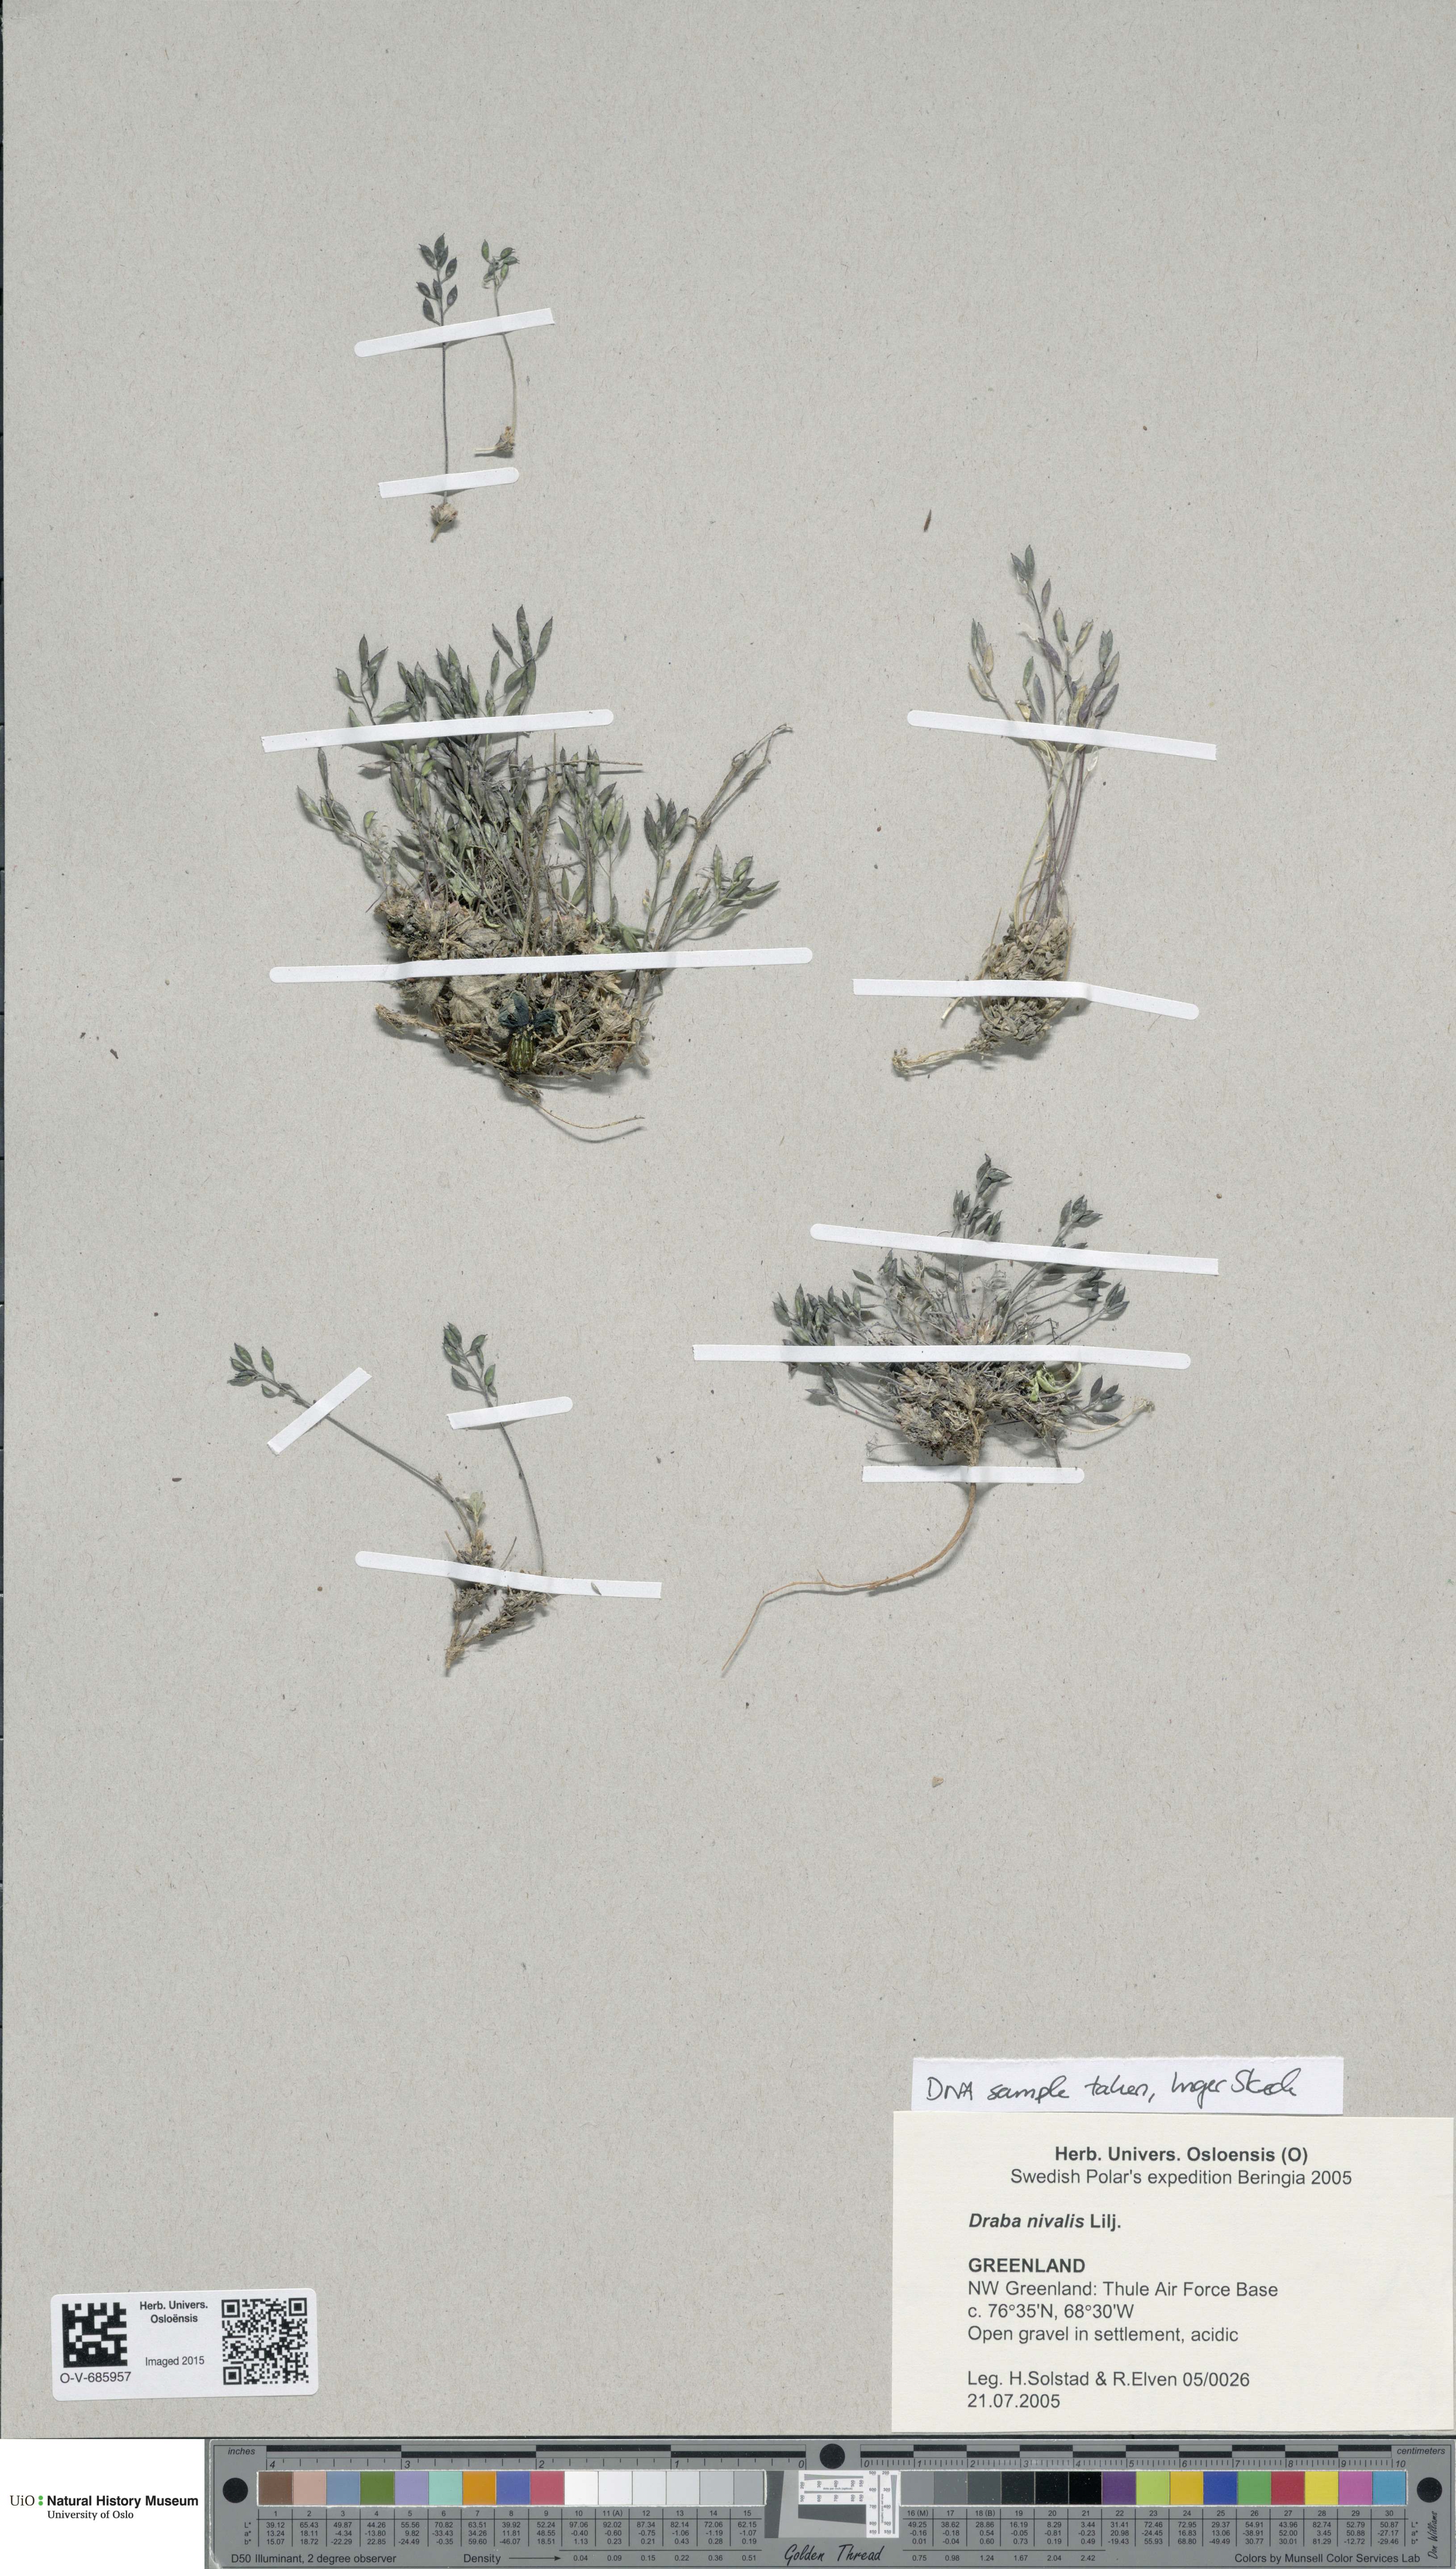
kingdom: Plantae
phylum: Tracheophyta
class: Magnoliopsida
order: Brassicales
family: Brassicaceae
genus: Draba
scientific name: Draba nivalis
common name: Snow draba
